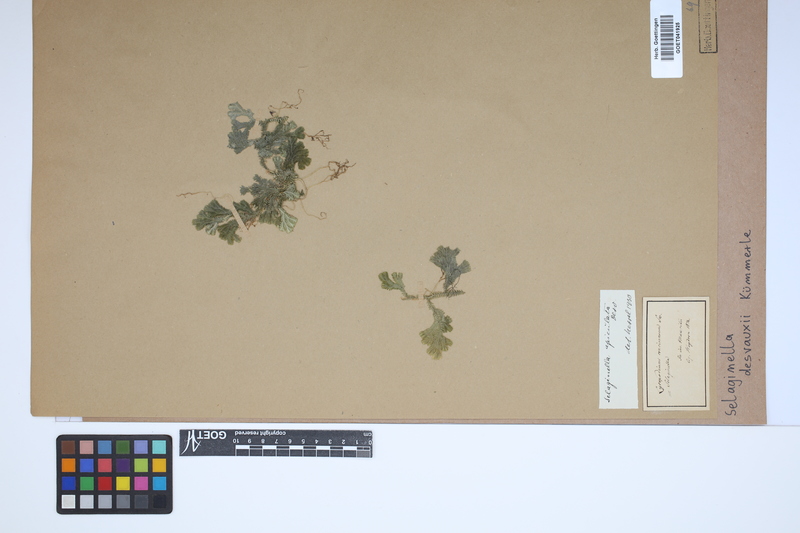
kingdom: Plantae
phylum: Tracheophyta
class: Lycopodiopsida
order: Selaginellales
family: Selaginellaceae
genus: Selaginella
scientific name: Selaginella concinna
